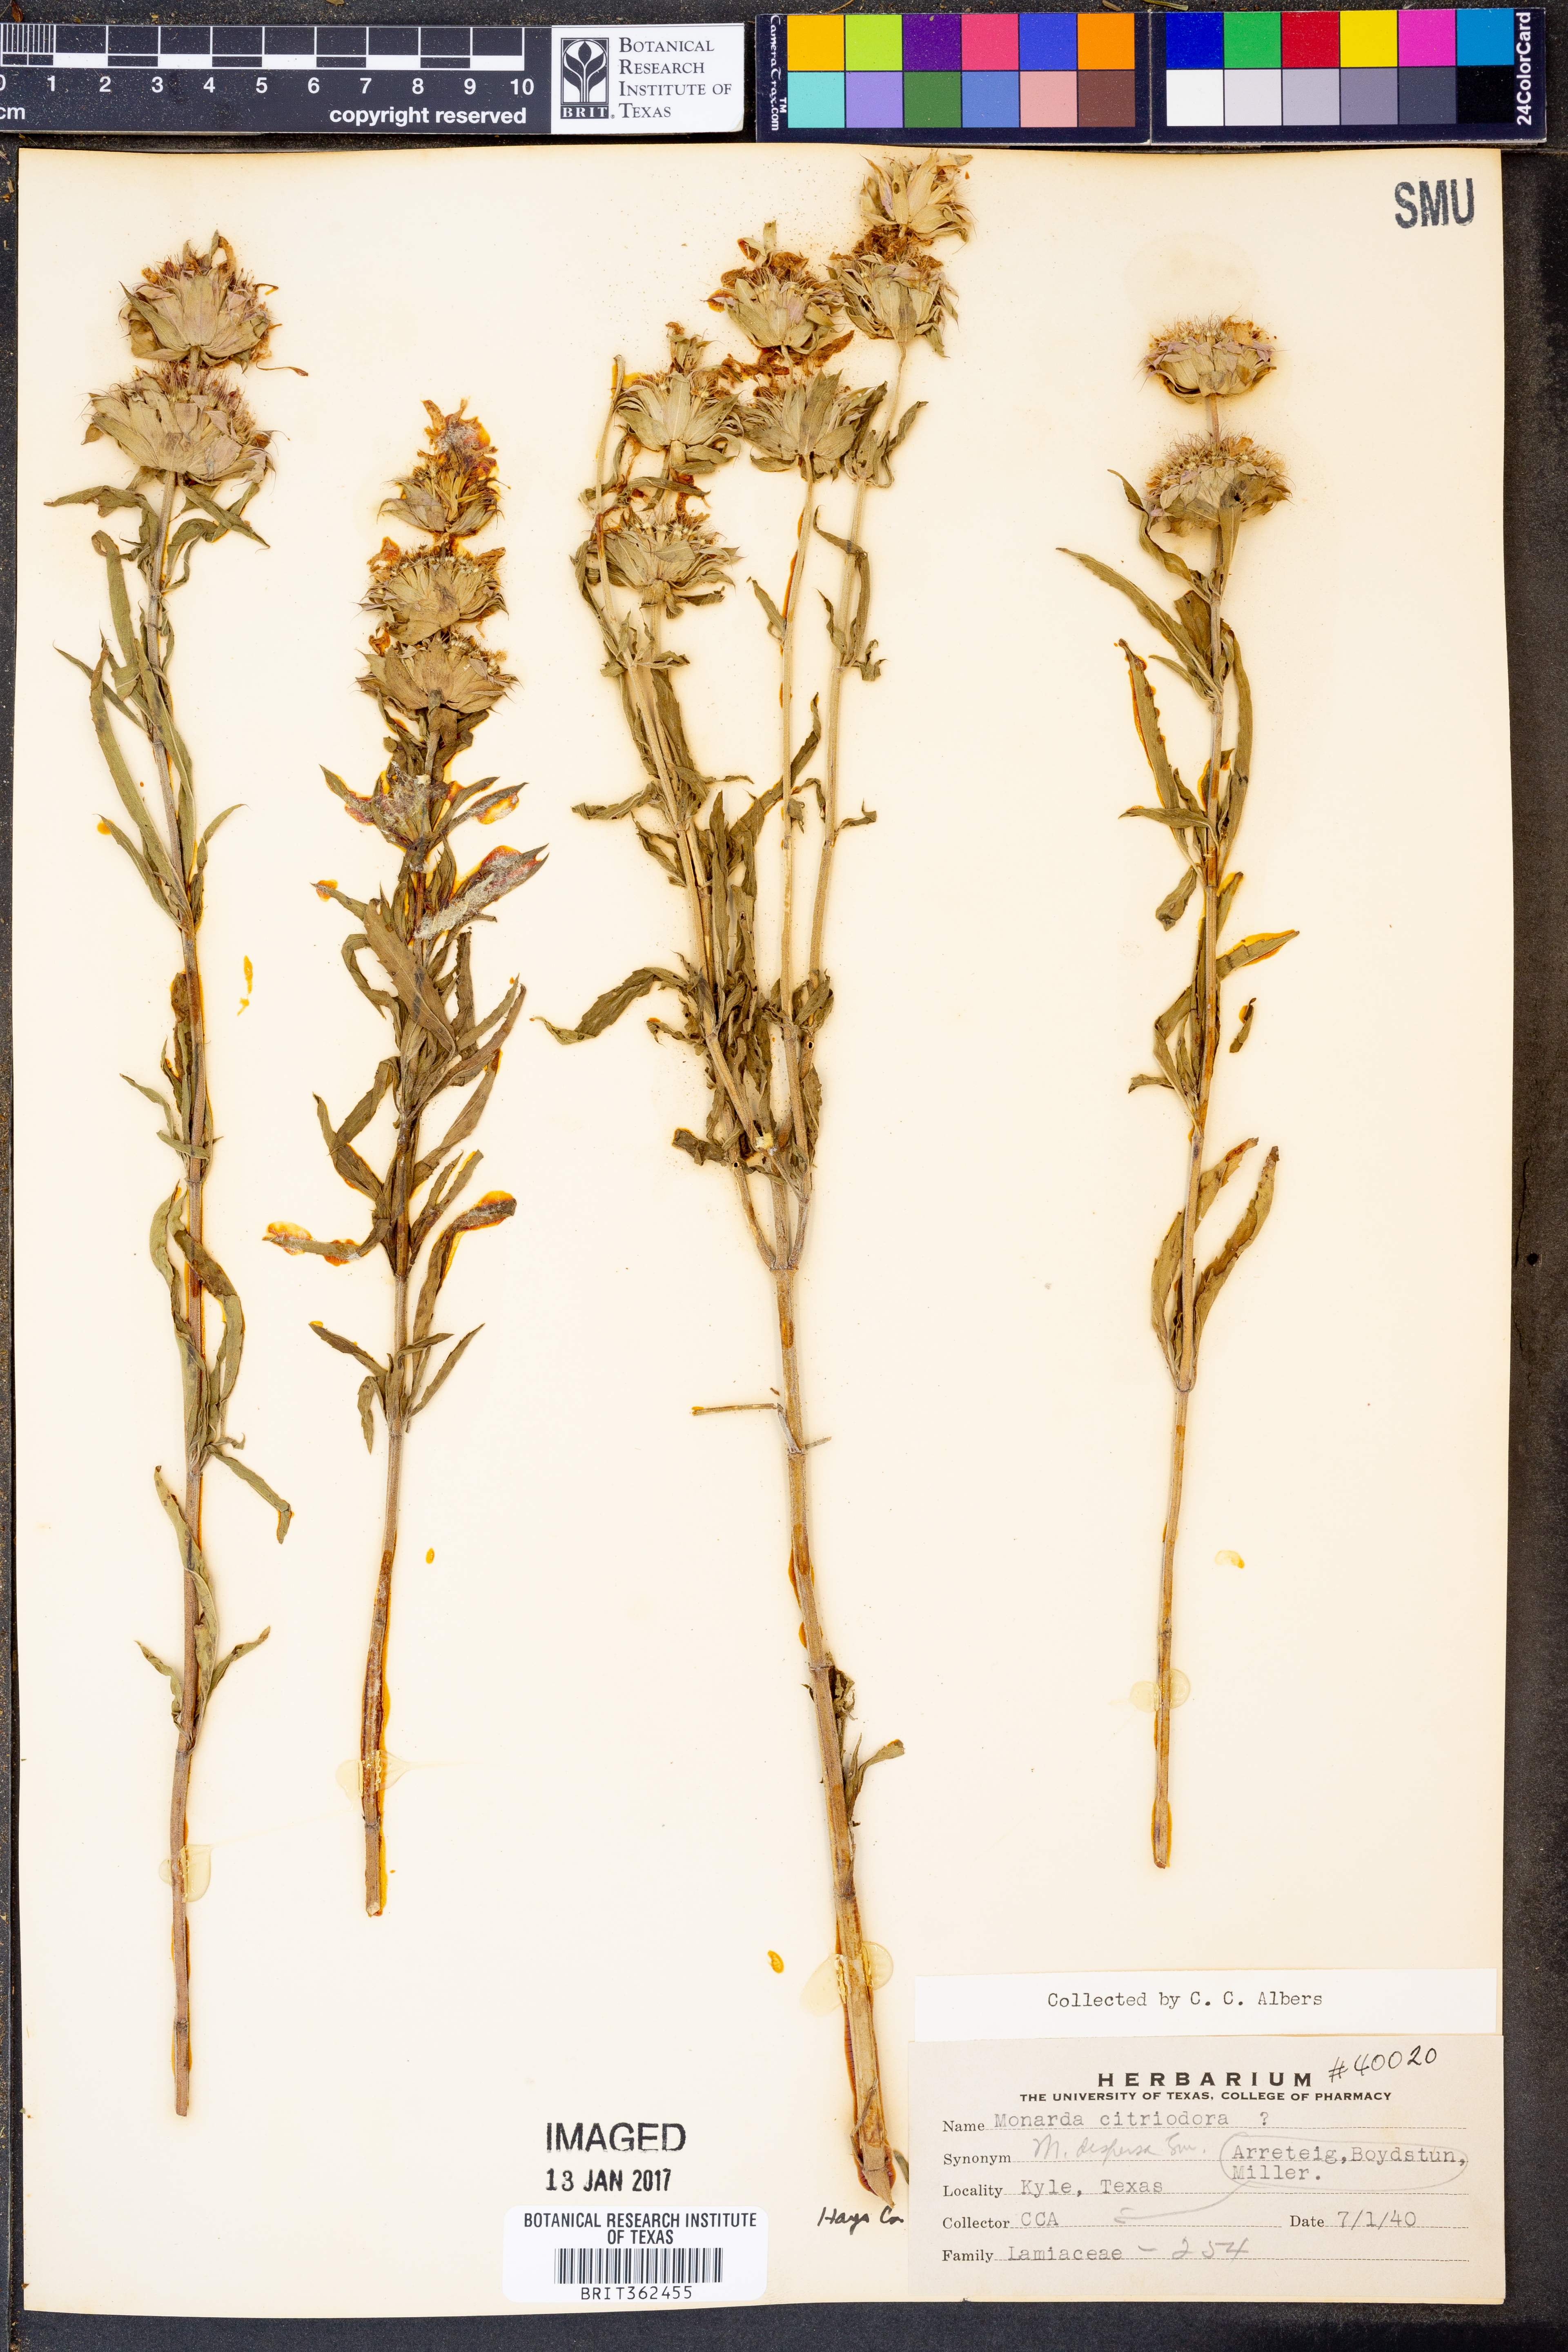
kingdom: Plantae
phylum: Tracheophyta
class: Magnoliopsida
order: Lamiales
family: Lamiaceae
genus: Monarda
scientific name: Monarda citriodora
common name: Lemon beebalm
